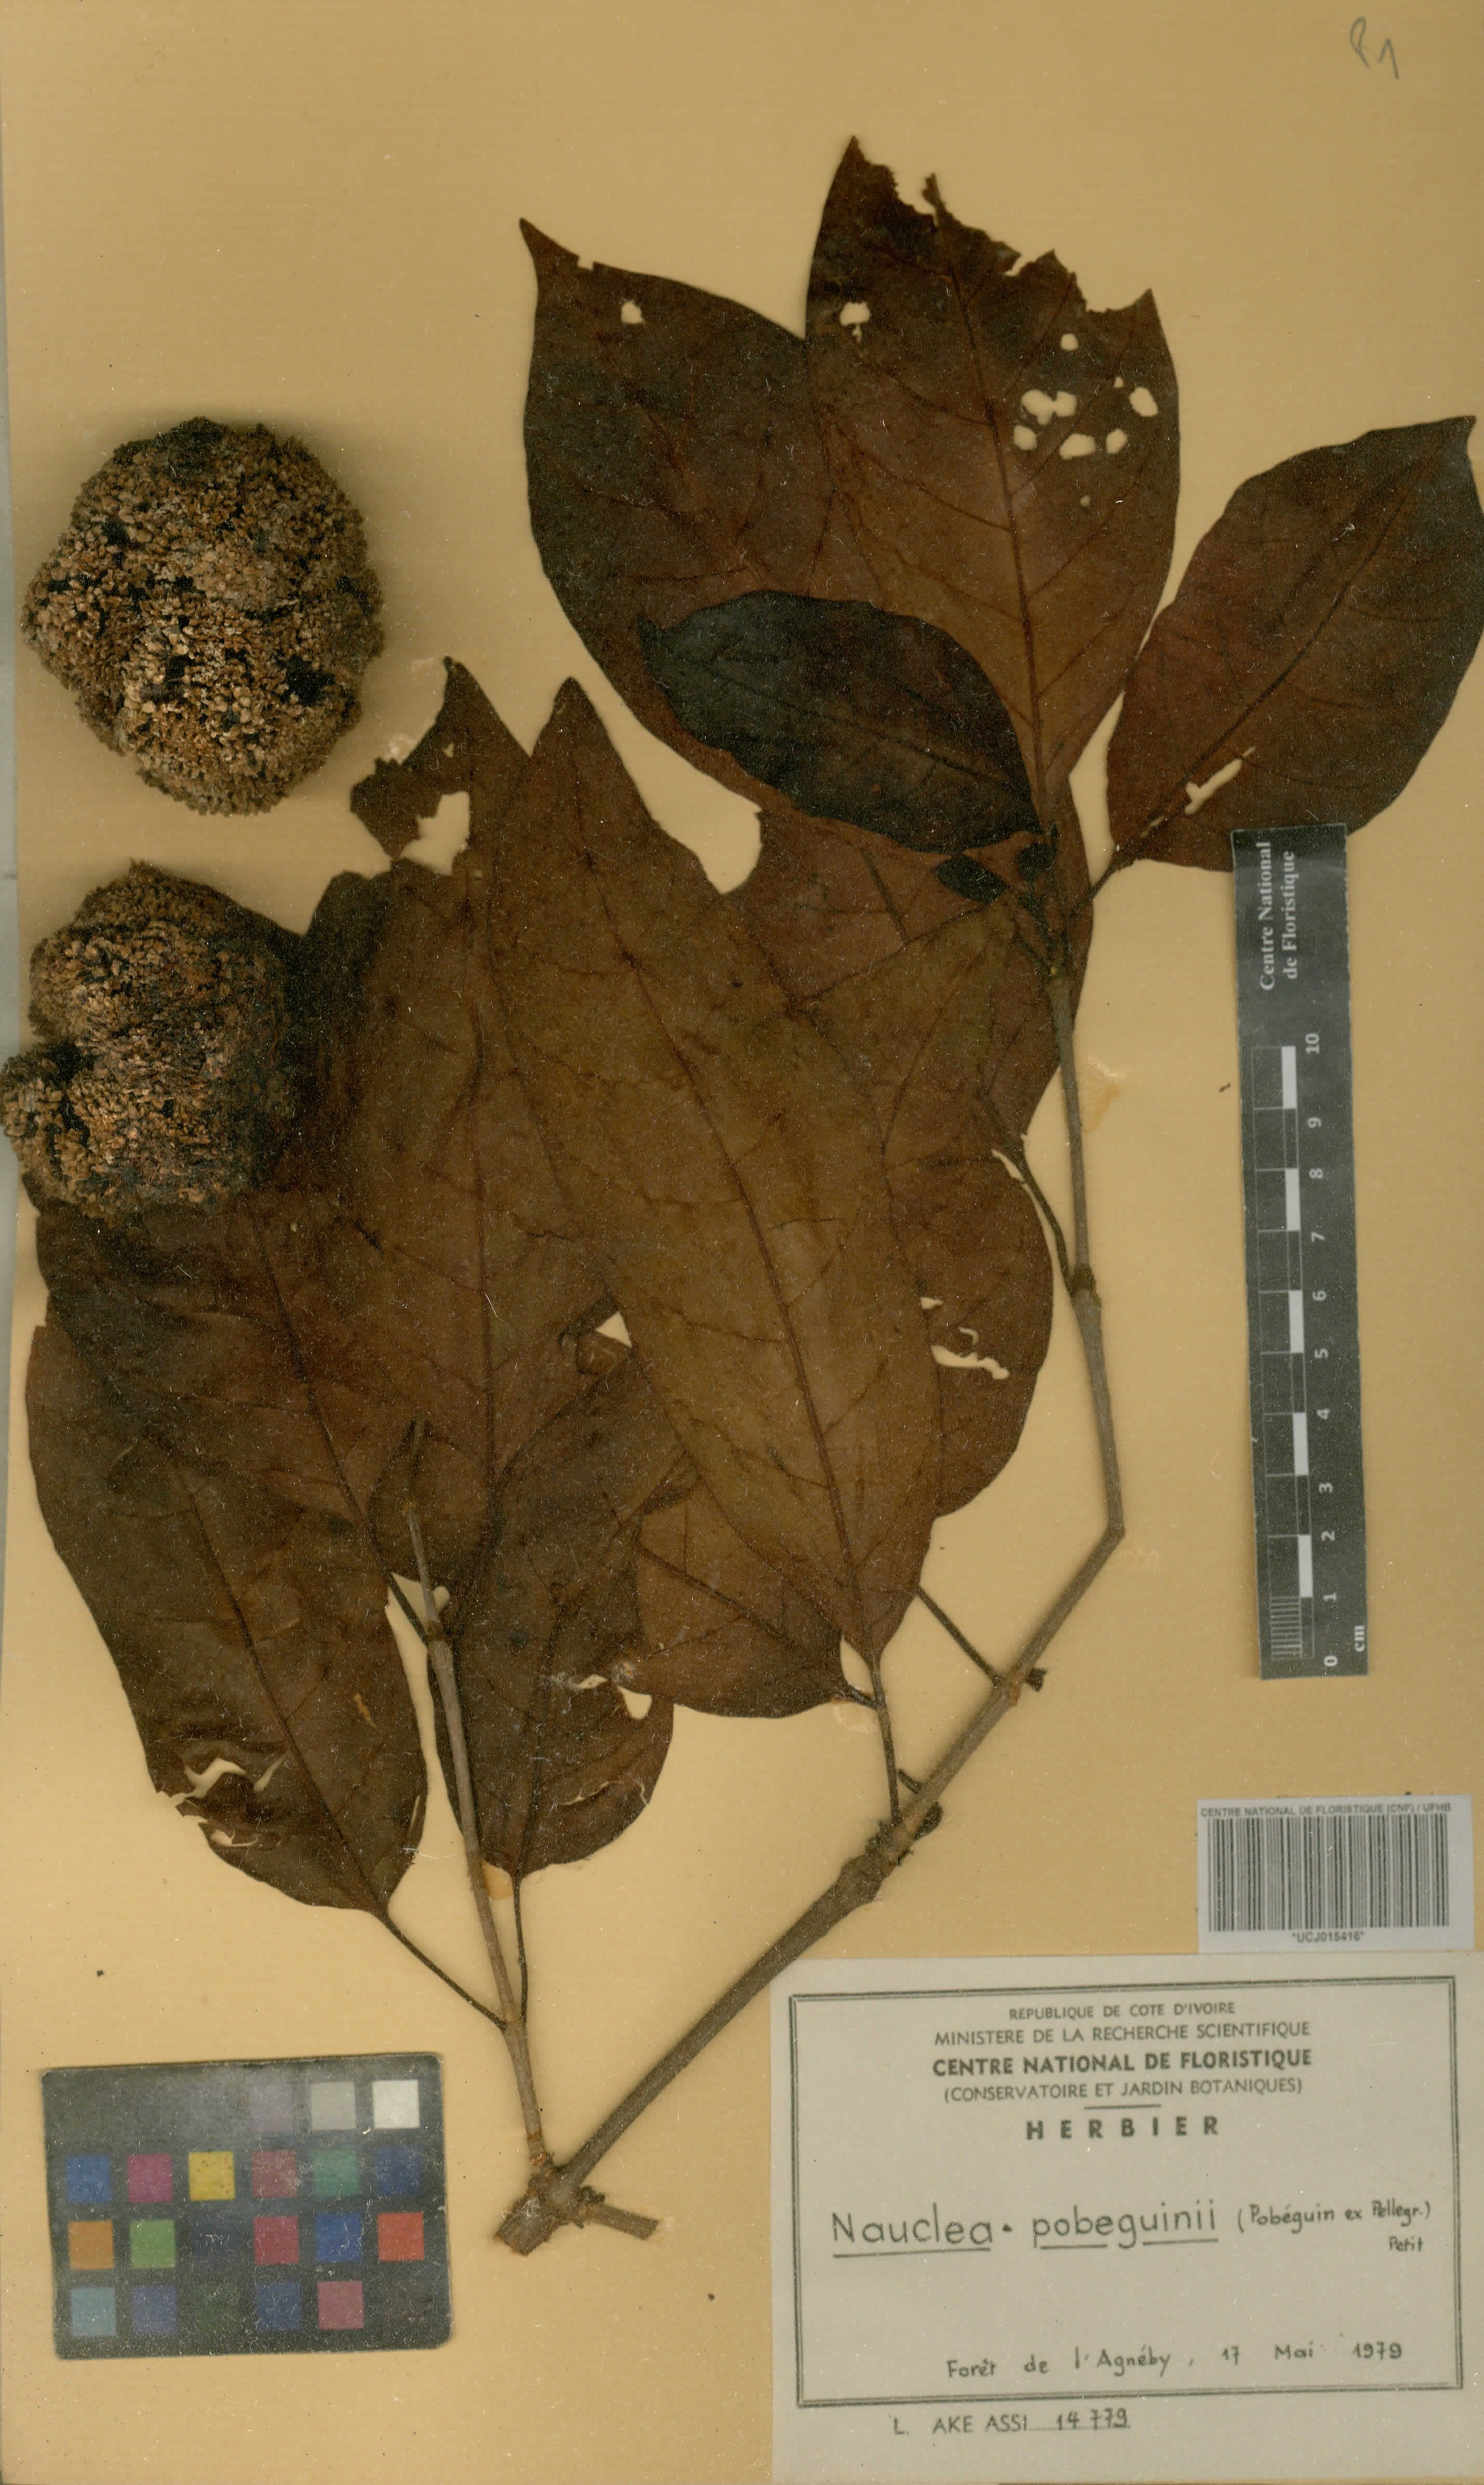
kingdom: Plantae
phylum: Tracheophyta
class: Magnoliopsida
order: Gentianales
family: Rubiaceae
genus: Nauclea
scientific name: Nauclea pobeguinii
